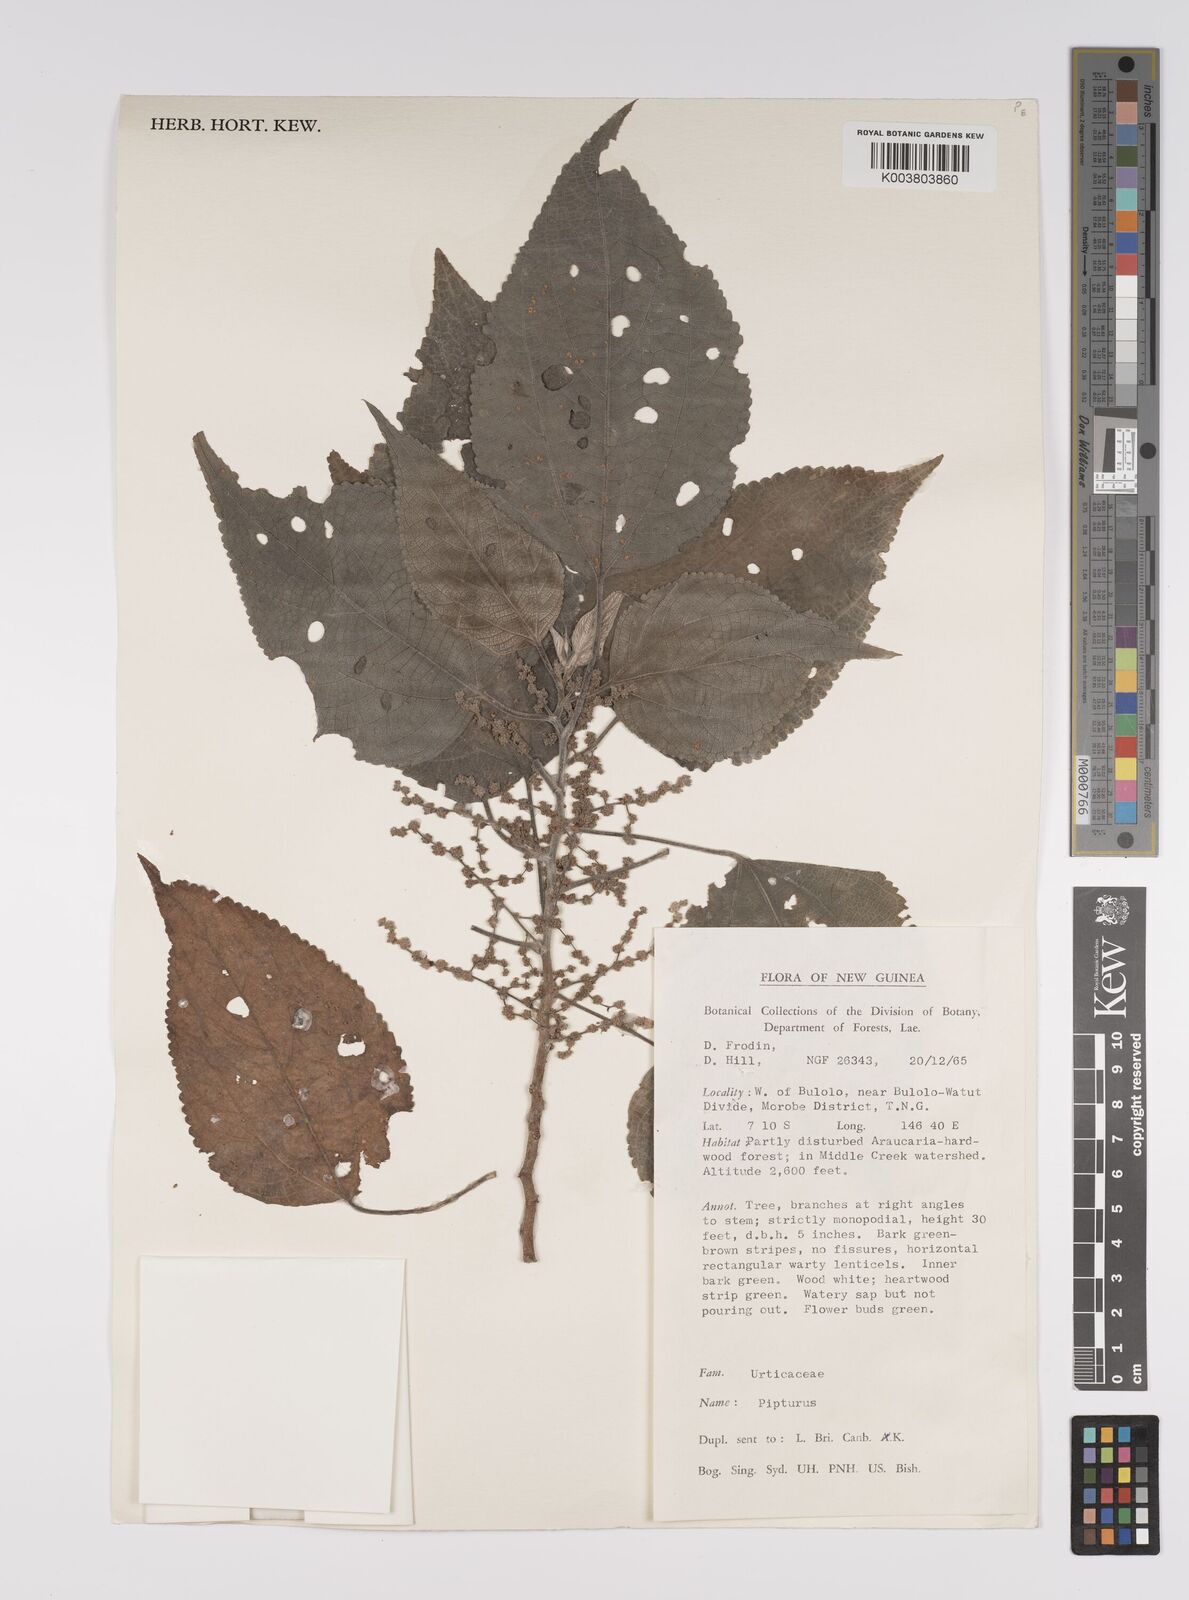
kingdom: Plantae
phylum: Tracheophyta
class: Magnoliopsida
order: Rosales
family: Urticaceae
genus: Pipturus
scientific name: Pipturus argenteus
